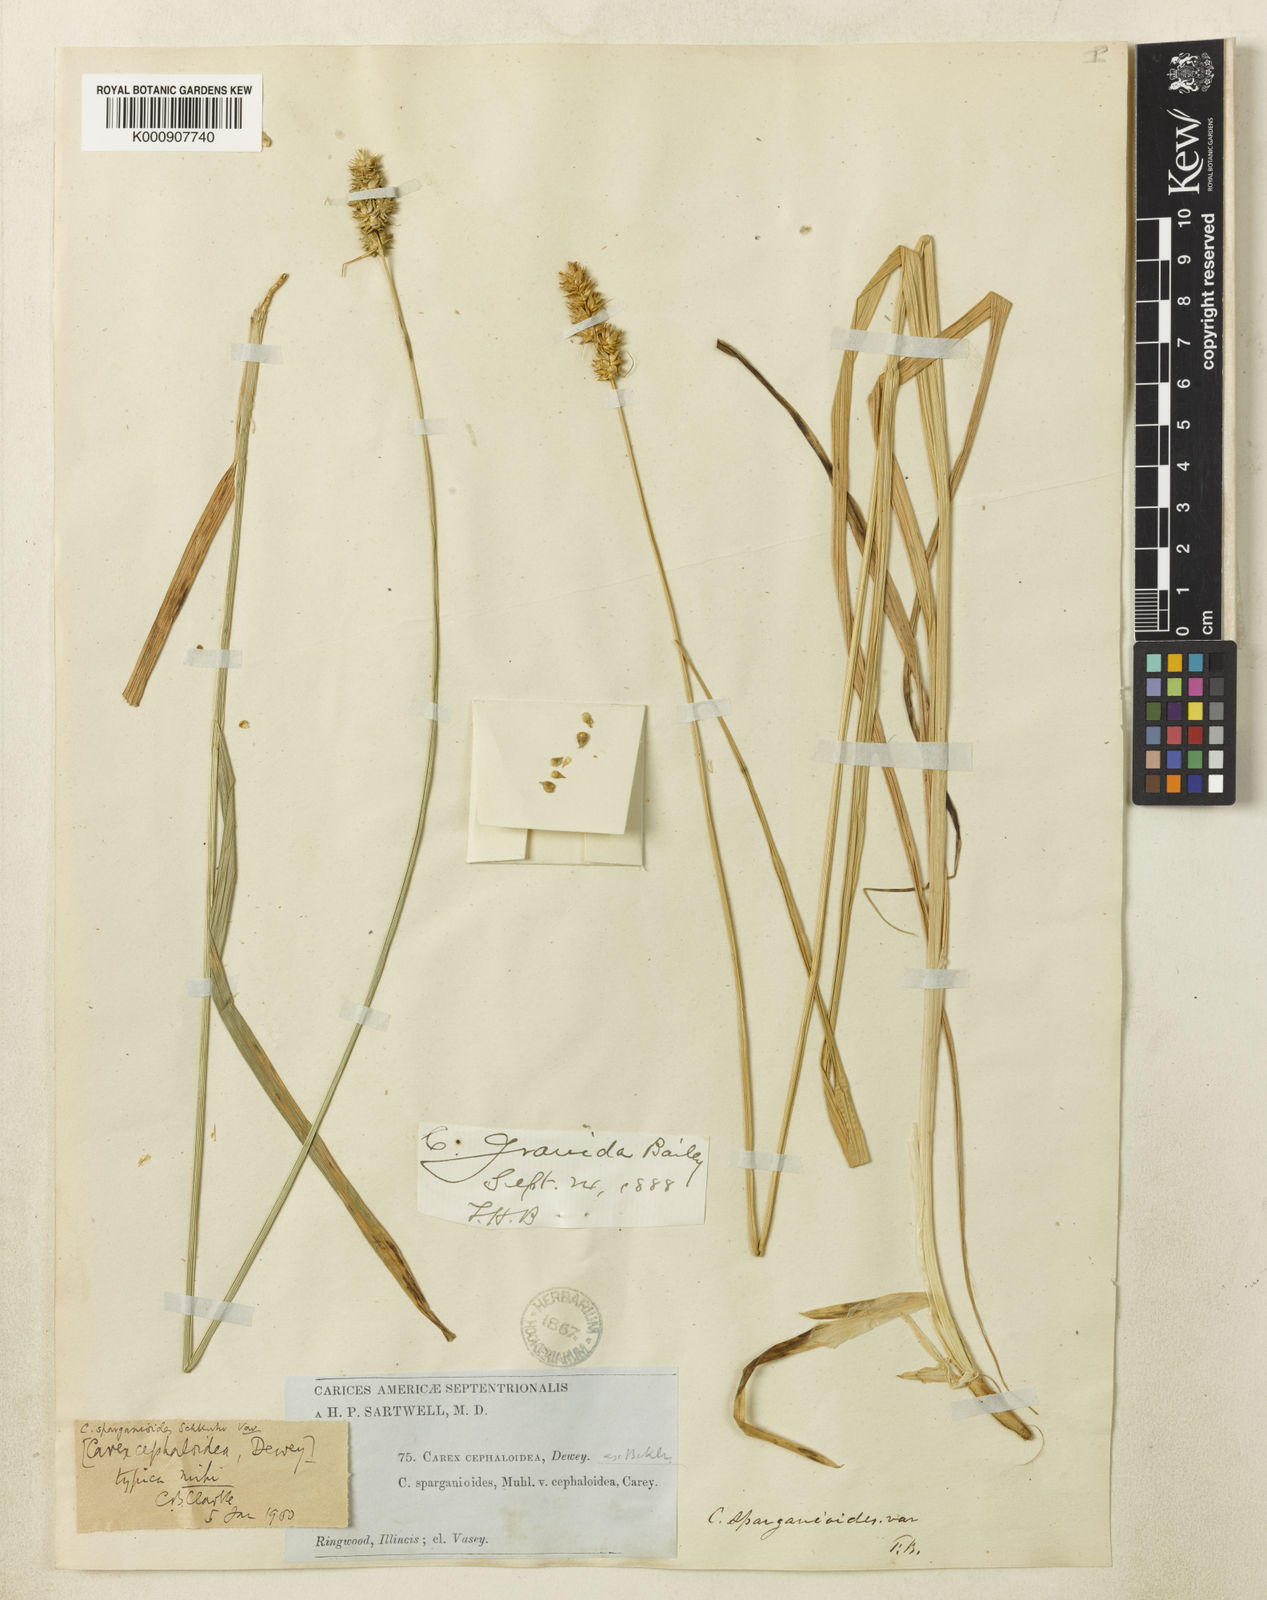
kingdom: Plantae
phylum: Tracheophyta
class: Liliopsida
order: Poales
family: Cyperaceae
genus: Carex
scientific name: Carex gravida
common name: Heavy sedge
